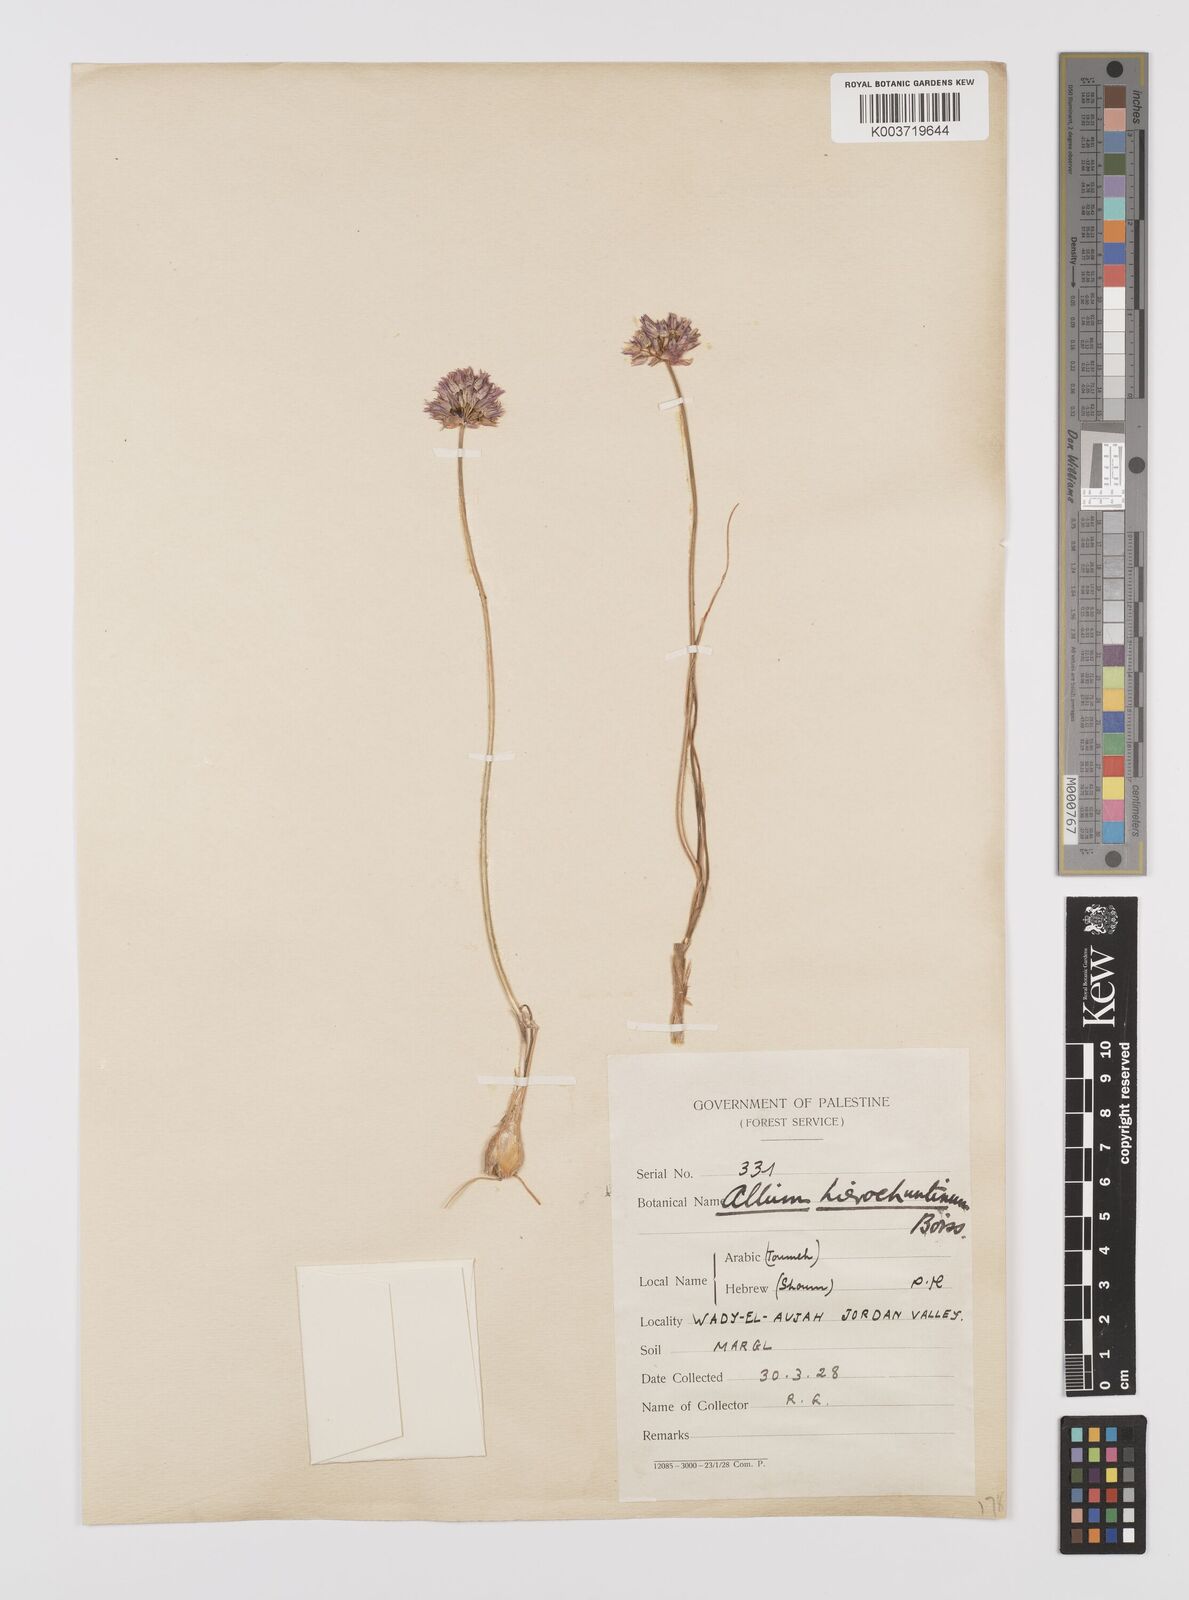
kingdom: Plantae
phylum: Tracheophyta
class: Liliopsida
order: Asparagales
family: Amaryllidaceae
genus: Allium
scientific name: Allium ascalonicum
